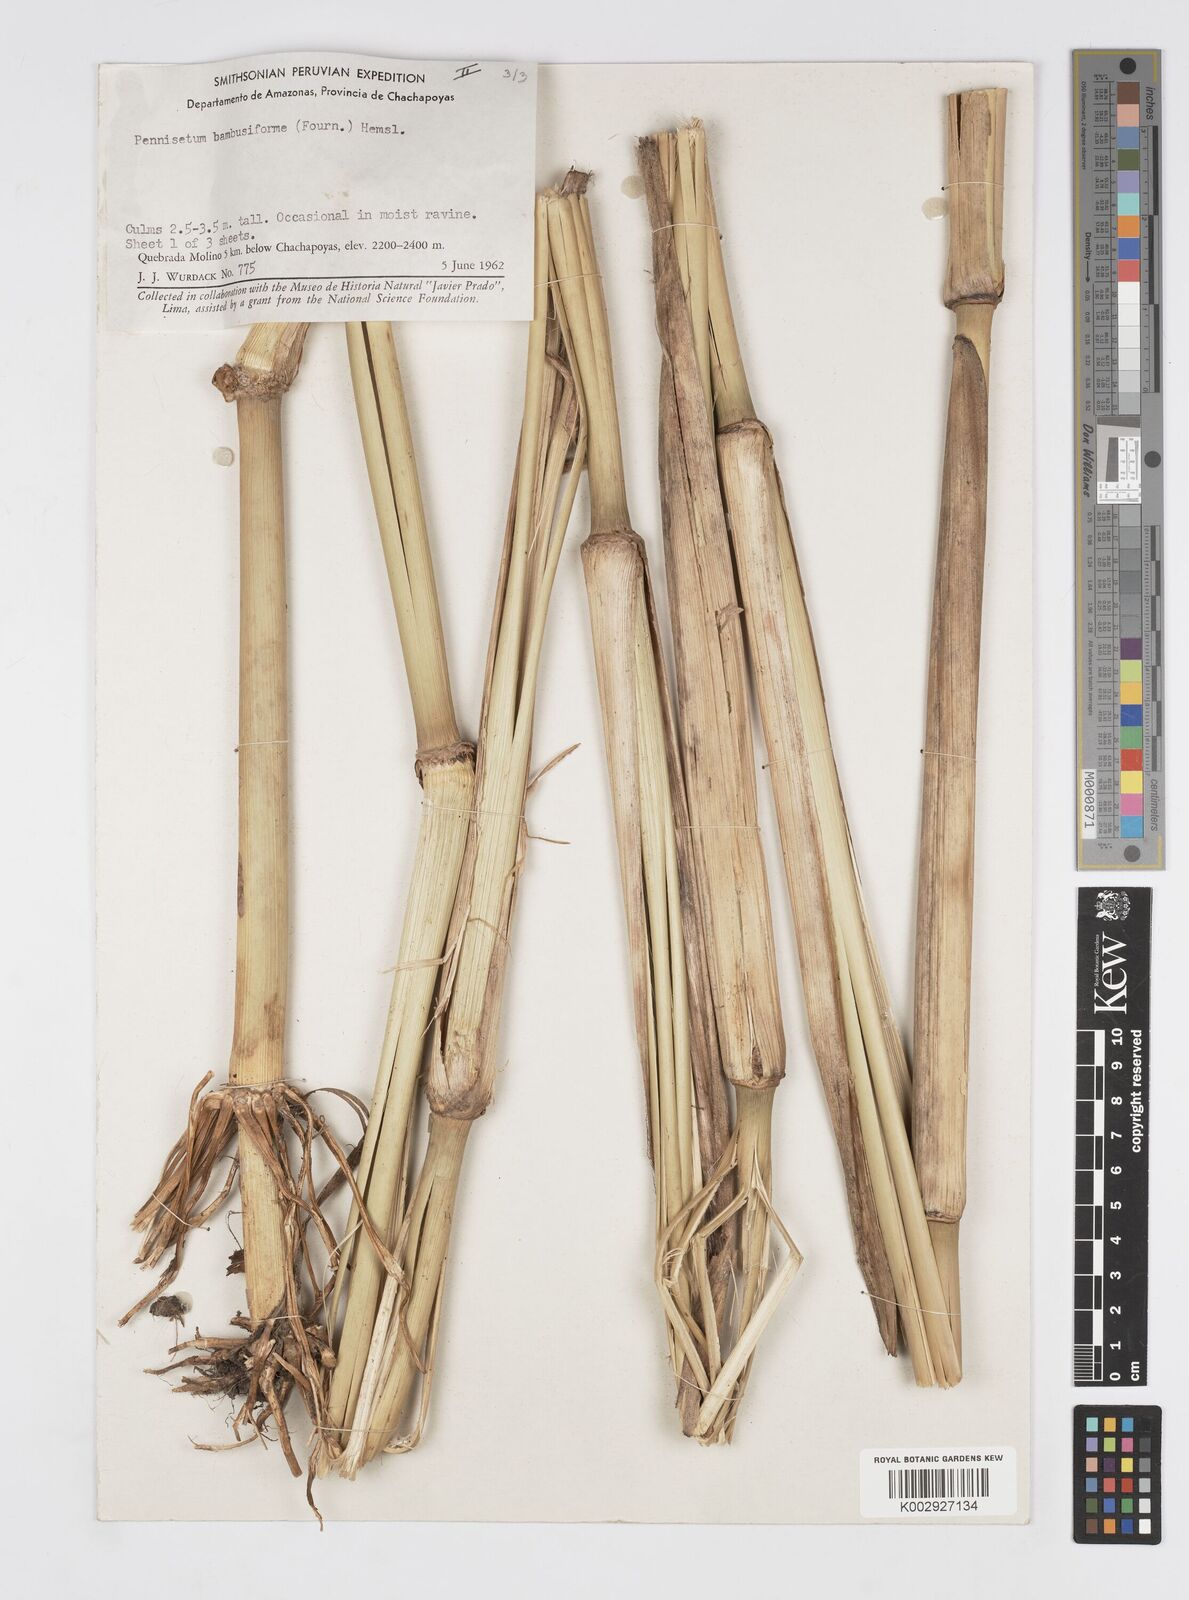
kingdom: Plantae
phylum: Tracheophyta
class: Liliopsida
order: Poales
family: Poaceae
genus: Cenchrus
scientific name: Cenchrus Pennisetum spec
